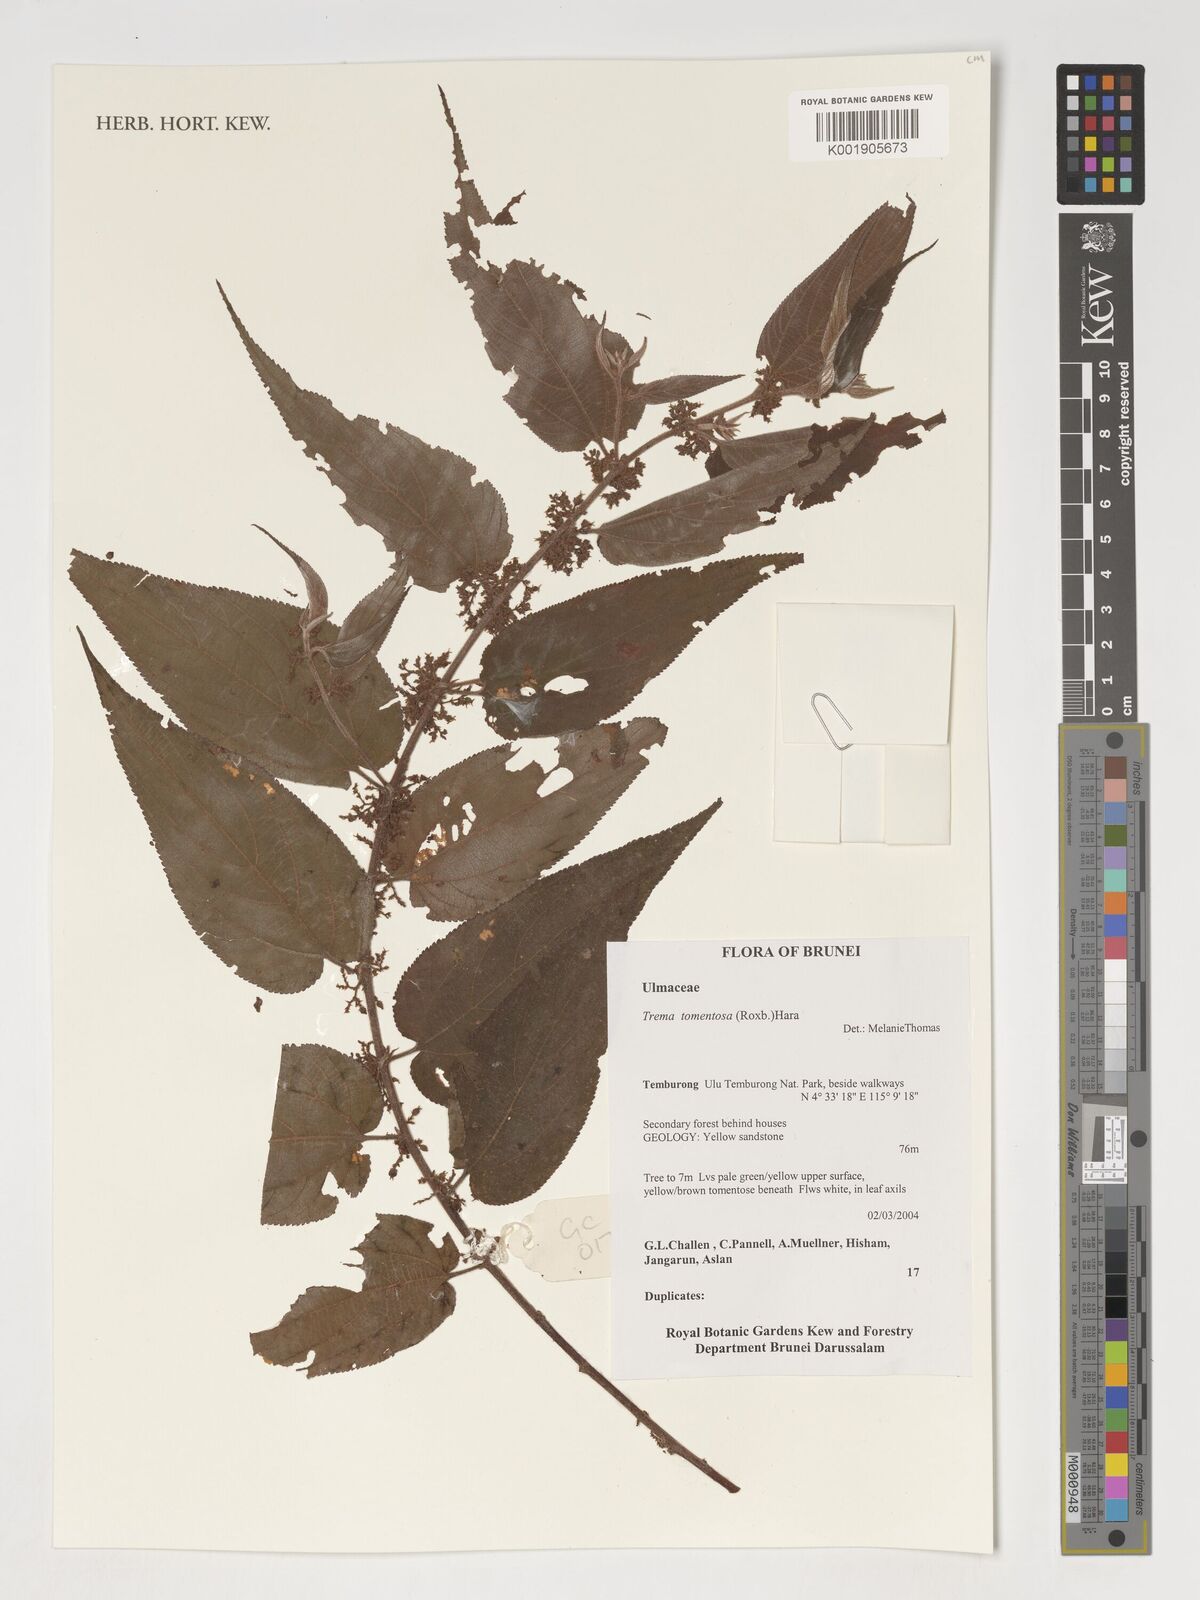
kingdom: Plantae
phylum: Tracheophyta
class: Magnoliopsida
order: Rosales
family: Cannabaceae
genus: Trema
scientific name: Trema
